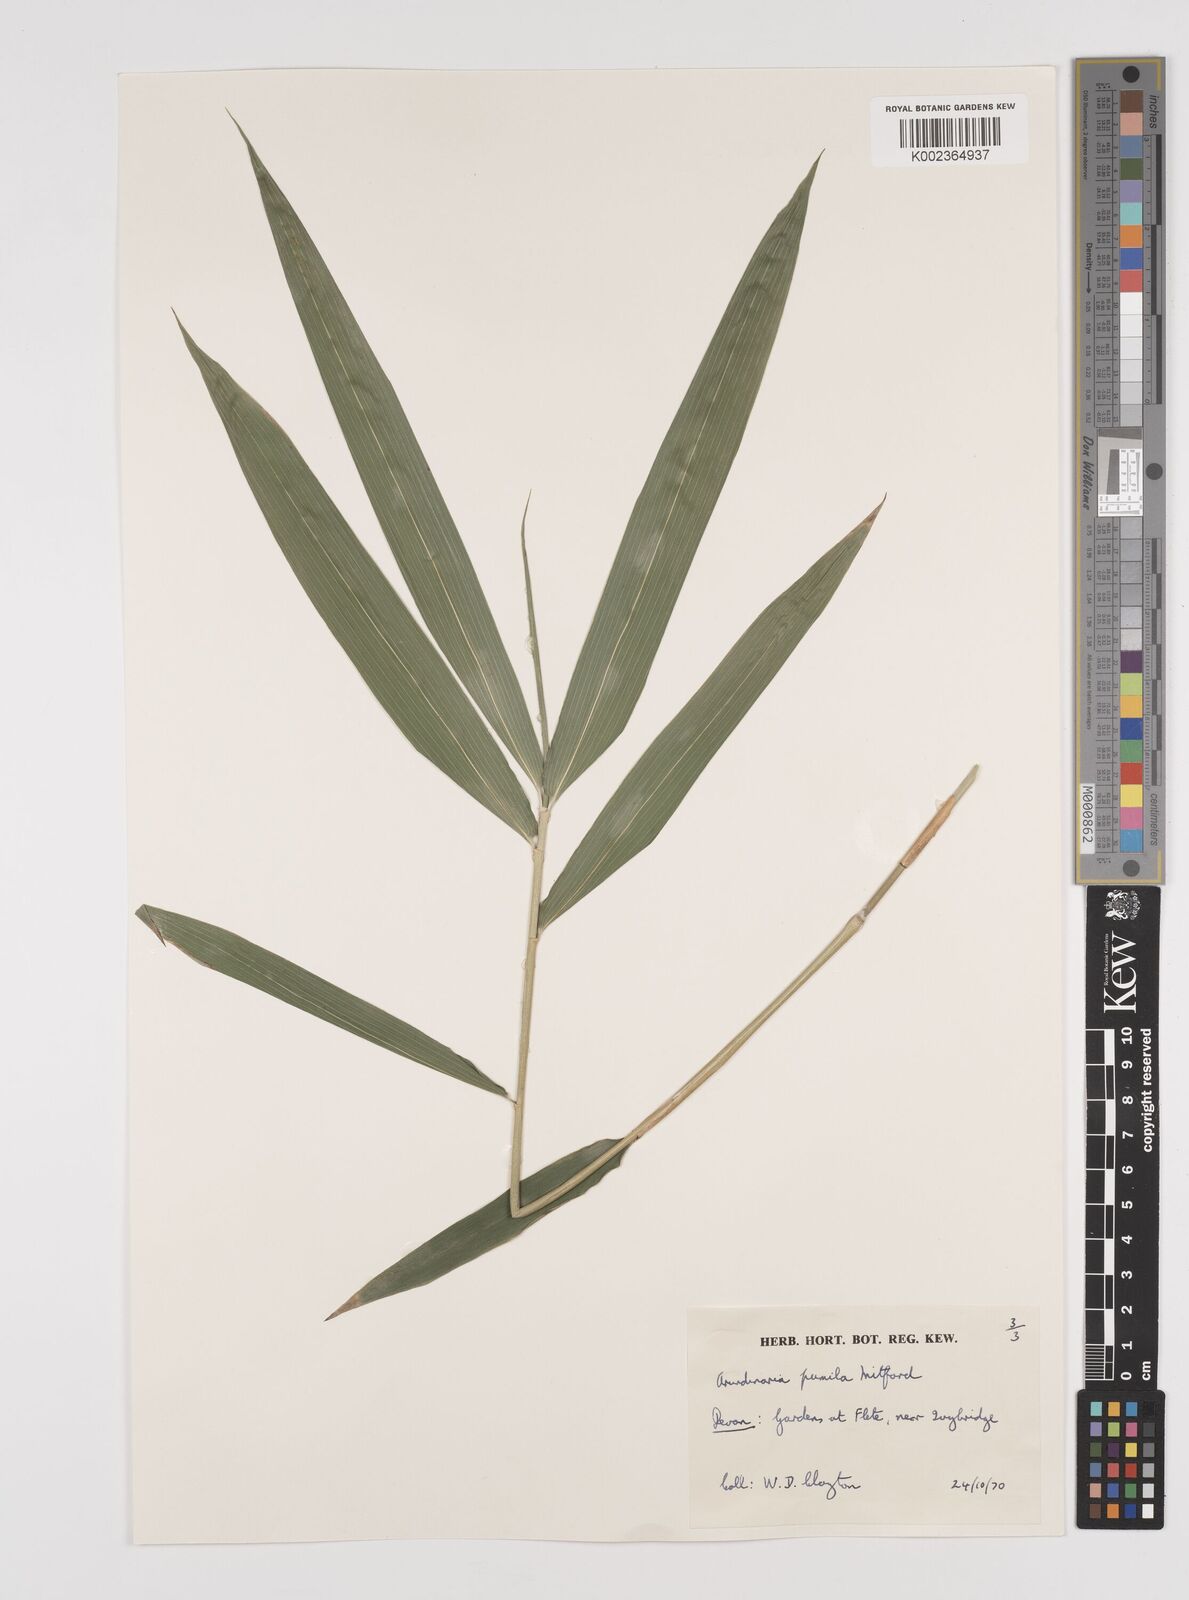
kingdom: Plantae
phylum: Tracheophyta
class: Liliopsida
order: Poales
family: Poaceae
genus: Pleioblastus
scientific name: Pleioblastus argenteostriatus
